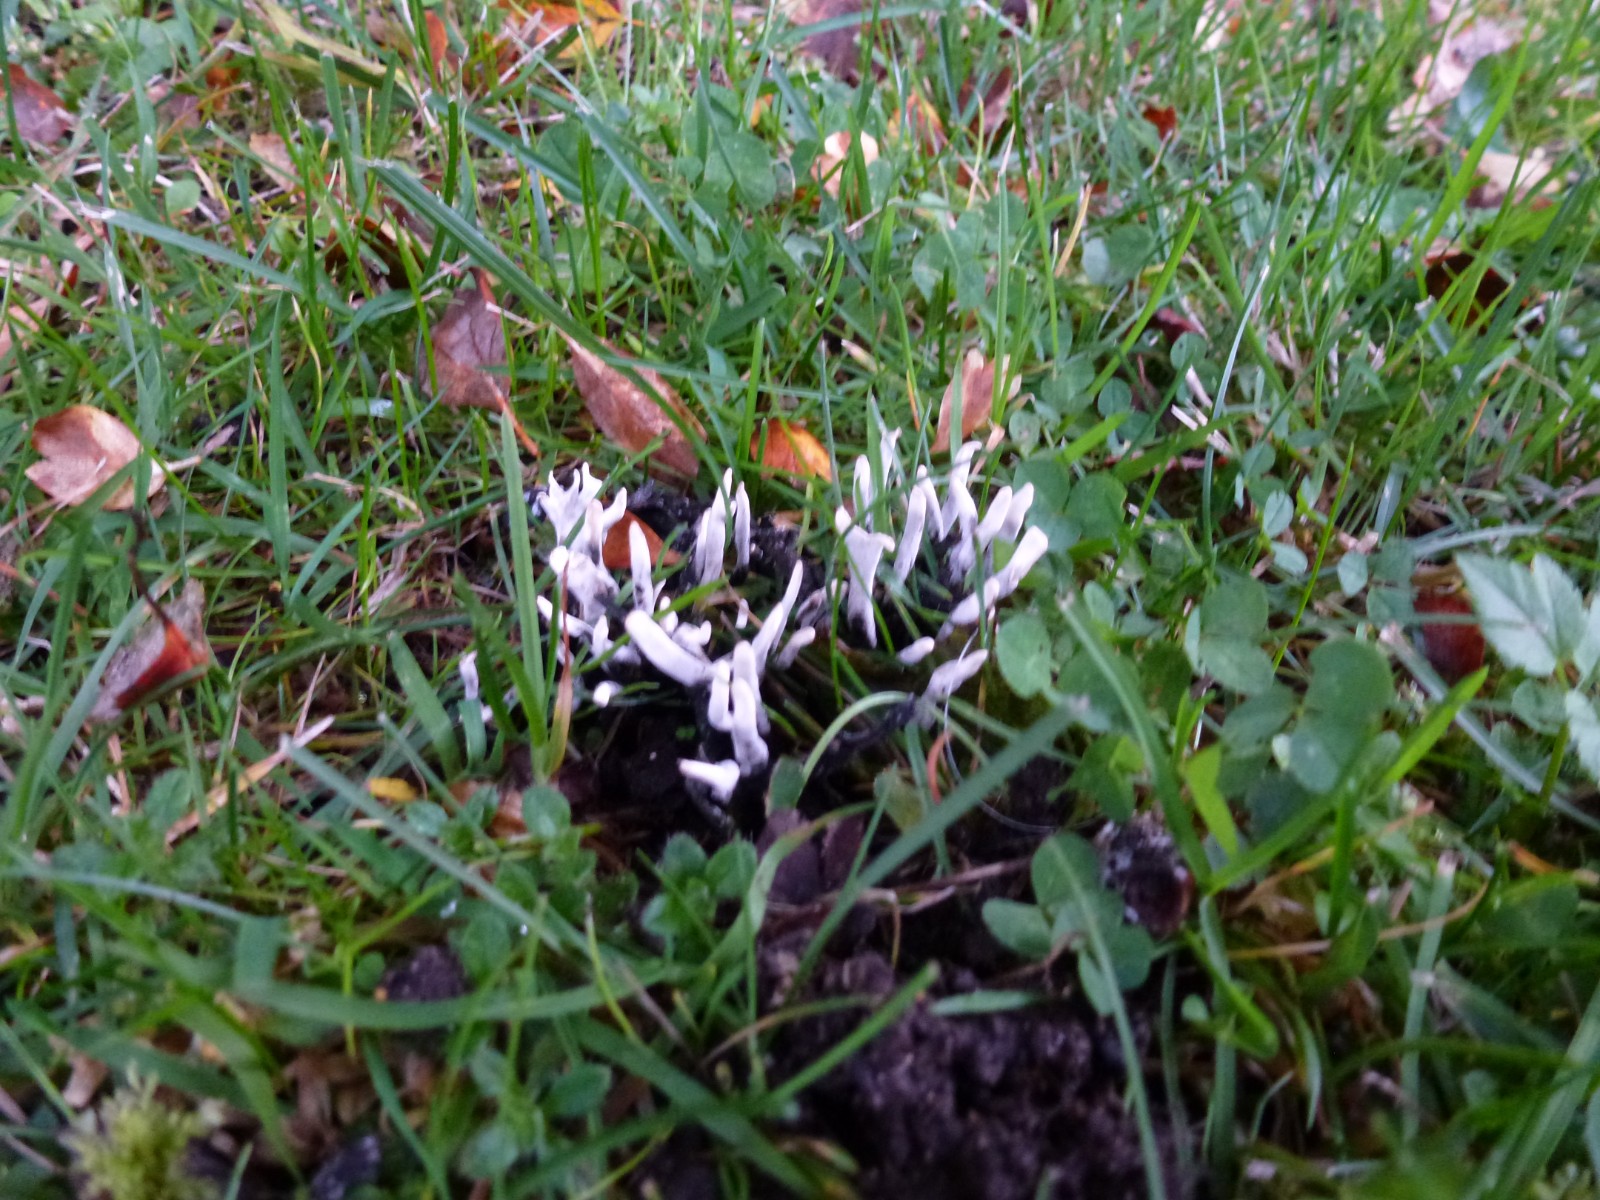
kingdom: Fungi
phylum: Ascomycota
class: Sordariomycetes
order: Xylariales
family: Xylariaceae
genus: Xylaria
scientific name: Xylaria hypoxylon
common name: grenet stødsvamp
